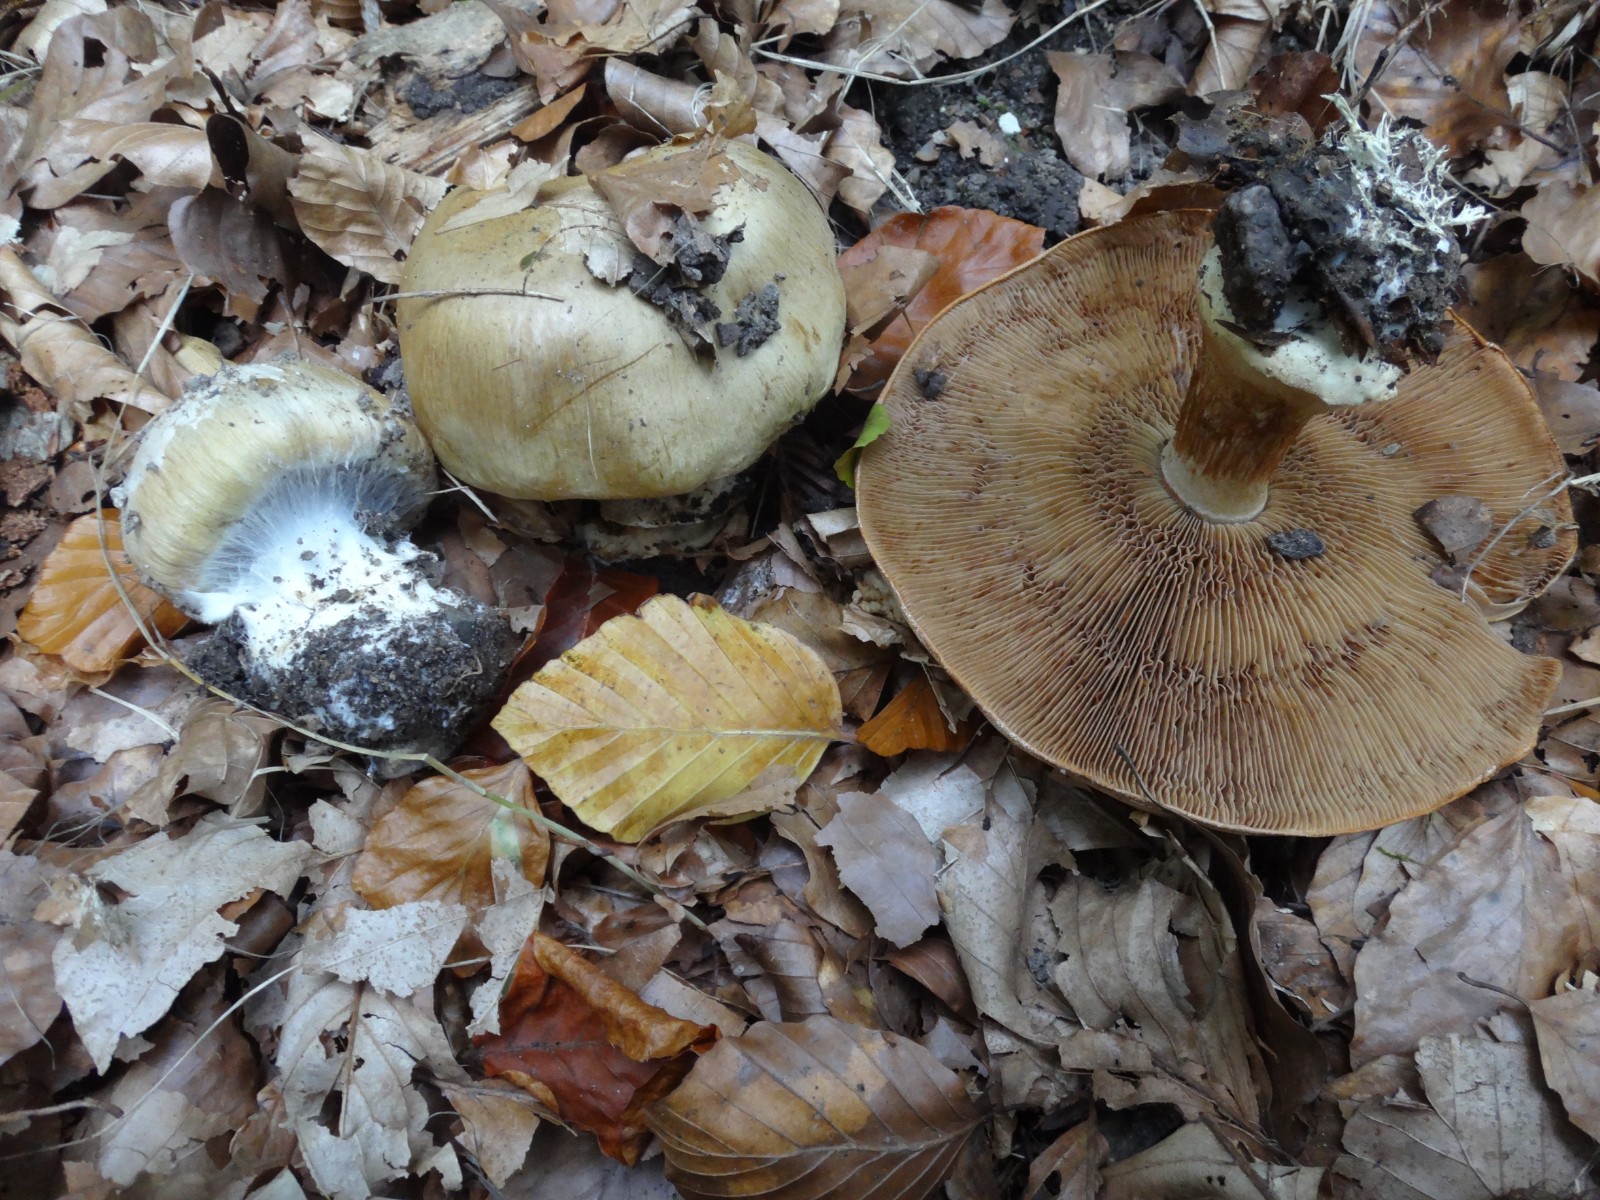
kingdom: Fungi
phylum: Basidiomycota
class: Agaricomycetes
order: Agaricales
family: Cortinariaceae
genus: Cortinarius
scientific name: Cortinarius anserinus
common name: bøge-slørhat
